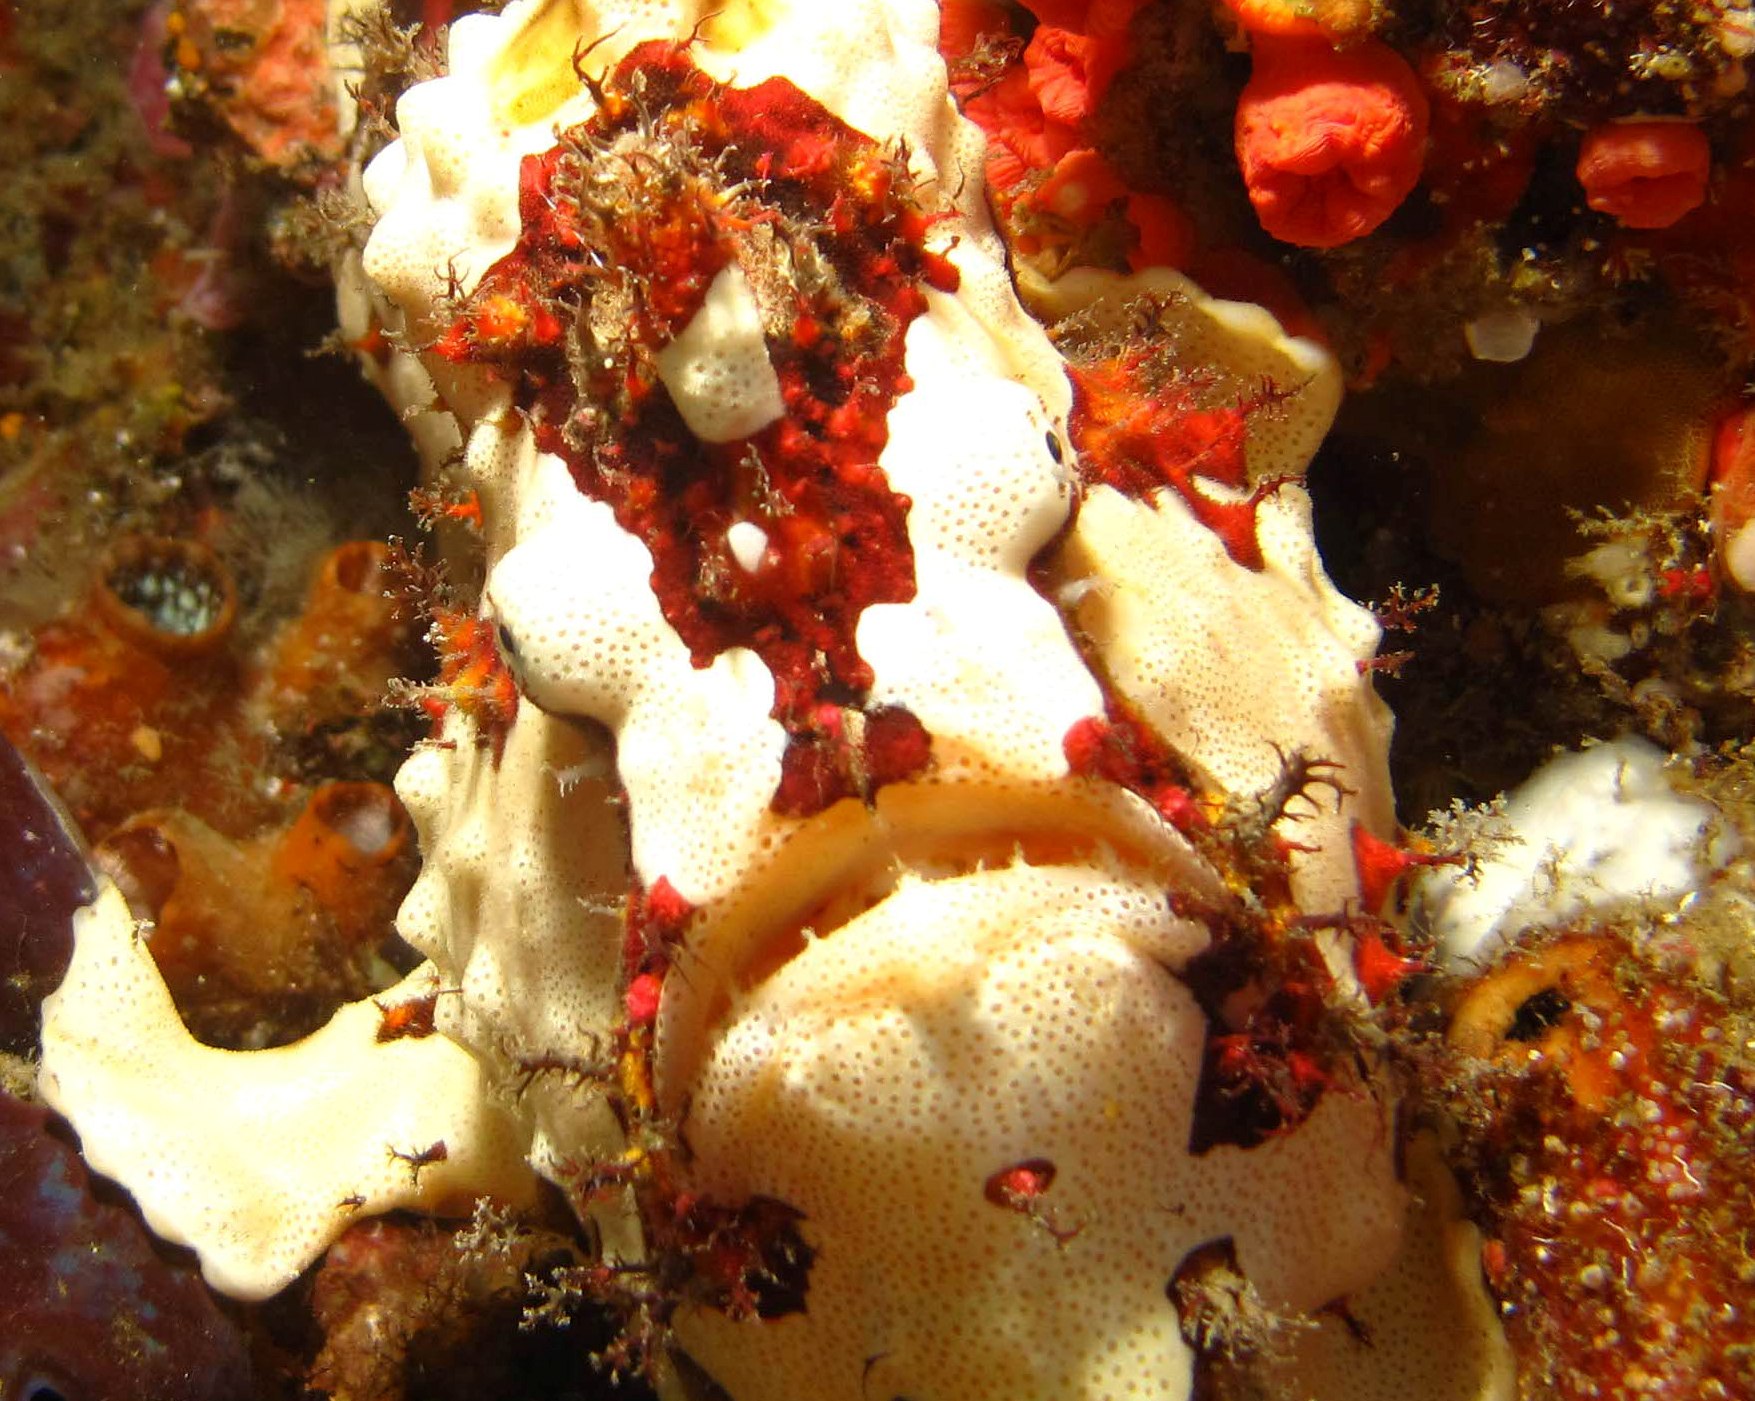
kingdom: Animalia
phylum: Chordata
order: Lophiiformes
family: Antennariidae
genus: Antennarius
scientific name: Antennarius maculatus
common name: Warty frogfish
